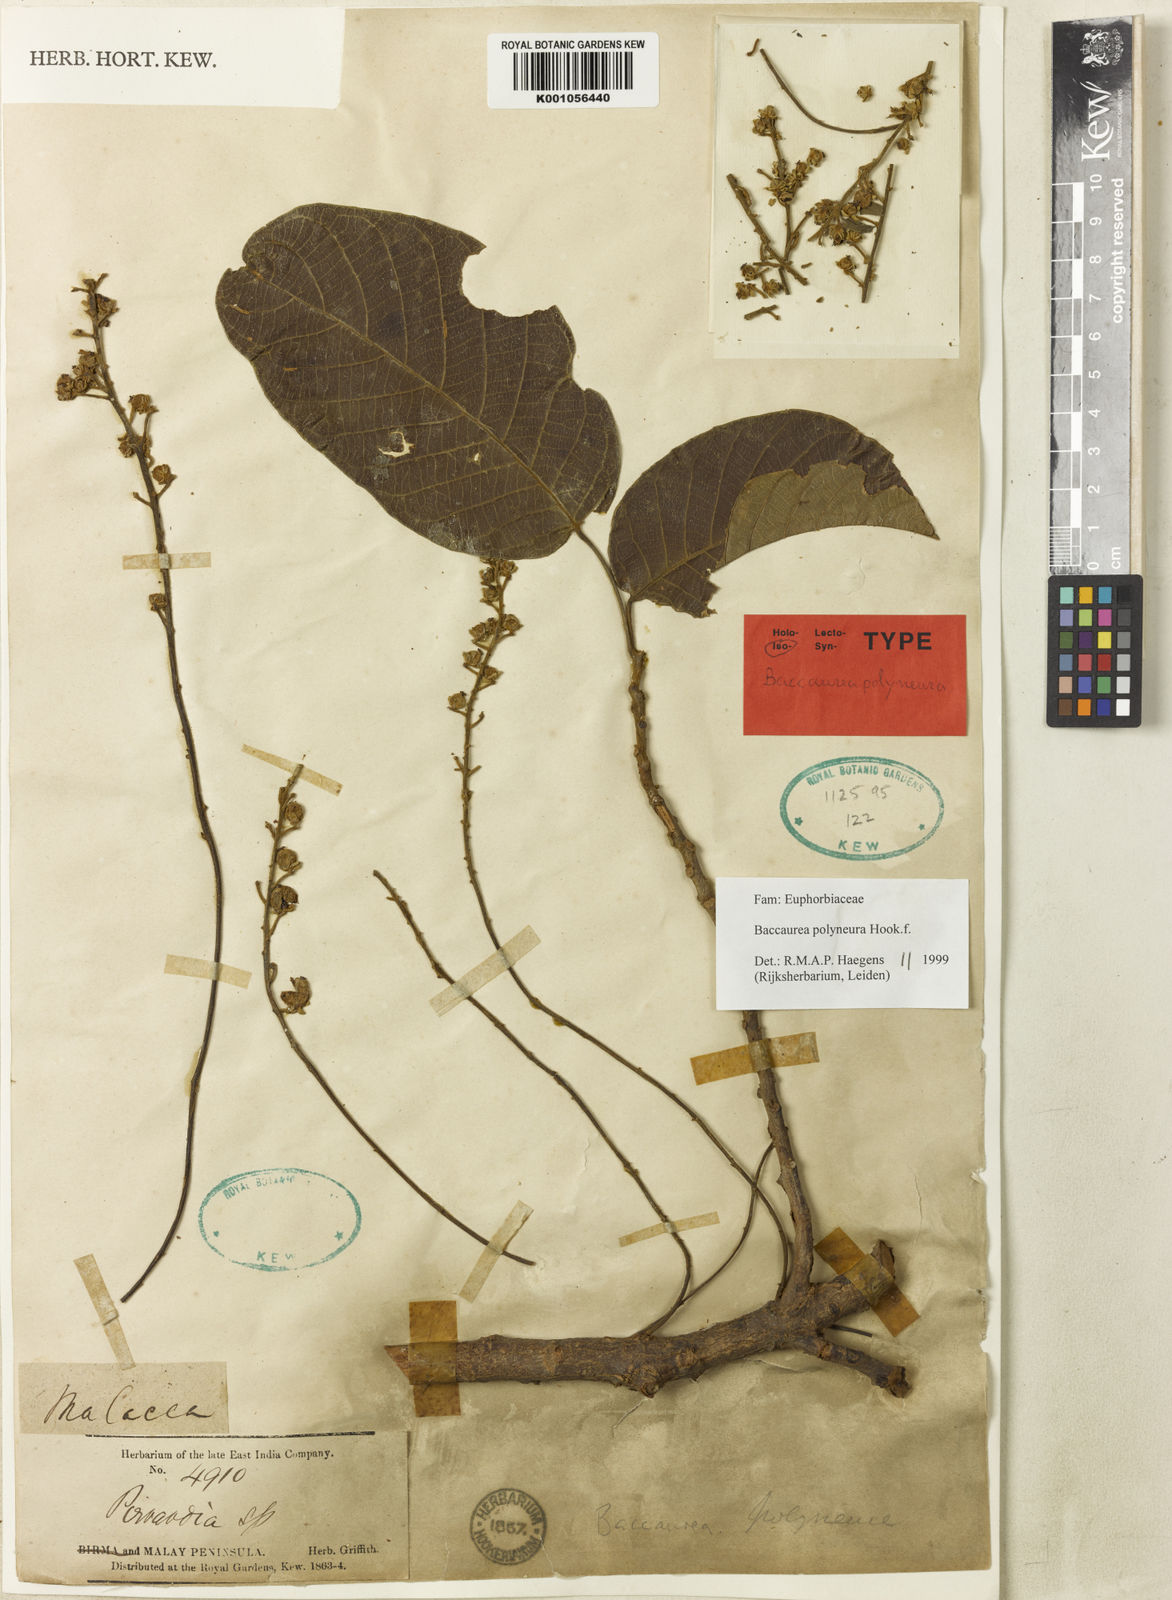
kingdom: Plantae
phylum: Tracheophyta
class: Magnoliopsida
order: Malpighiales
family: Phyllanthaceae
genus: Baccaurea
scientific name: Baccaurea polyneura
